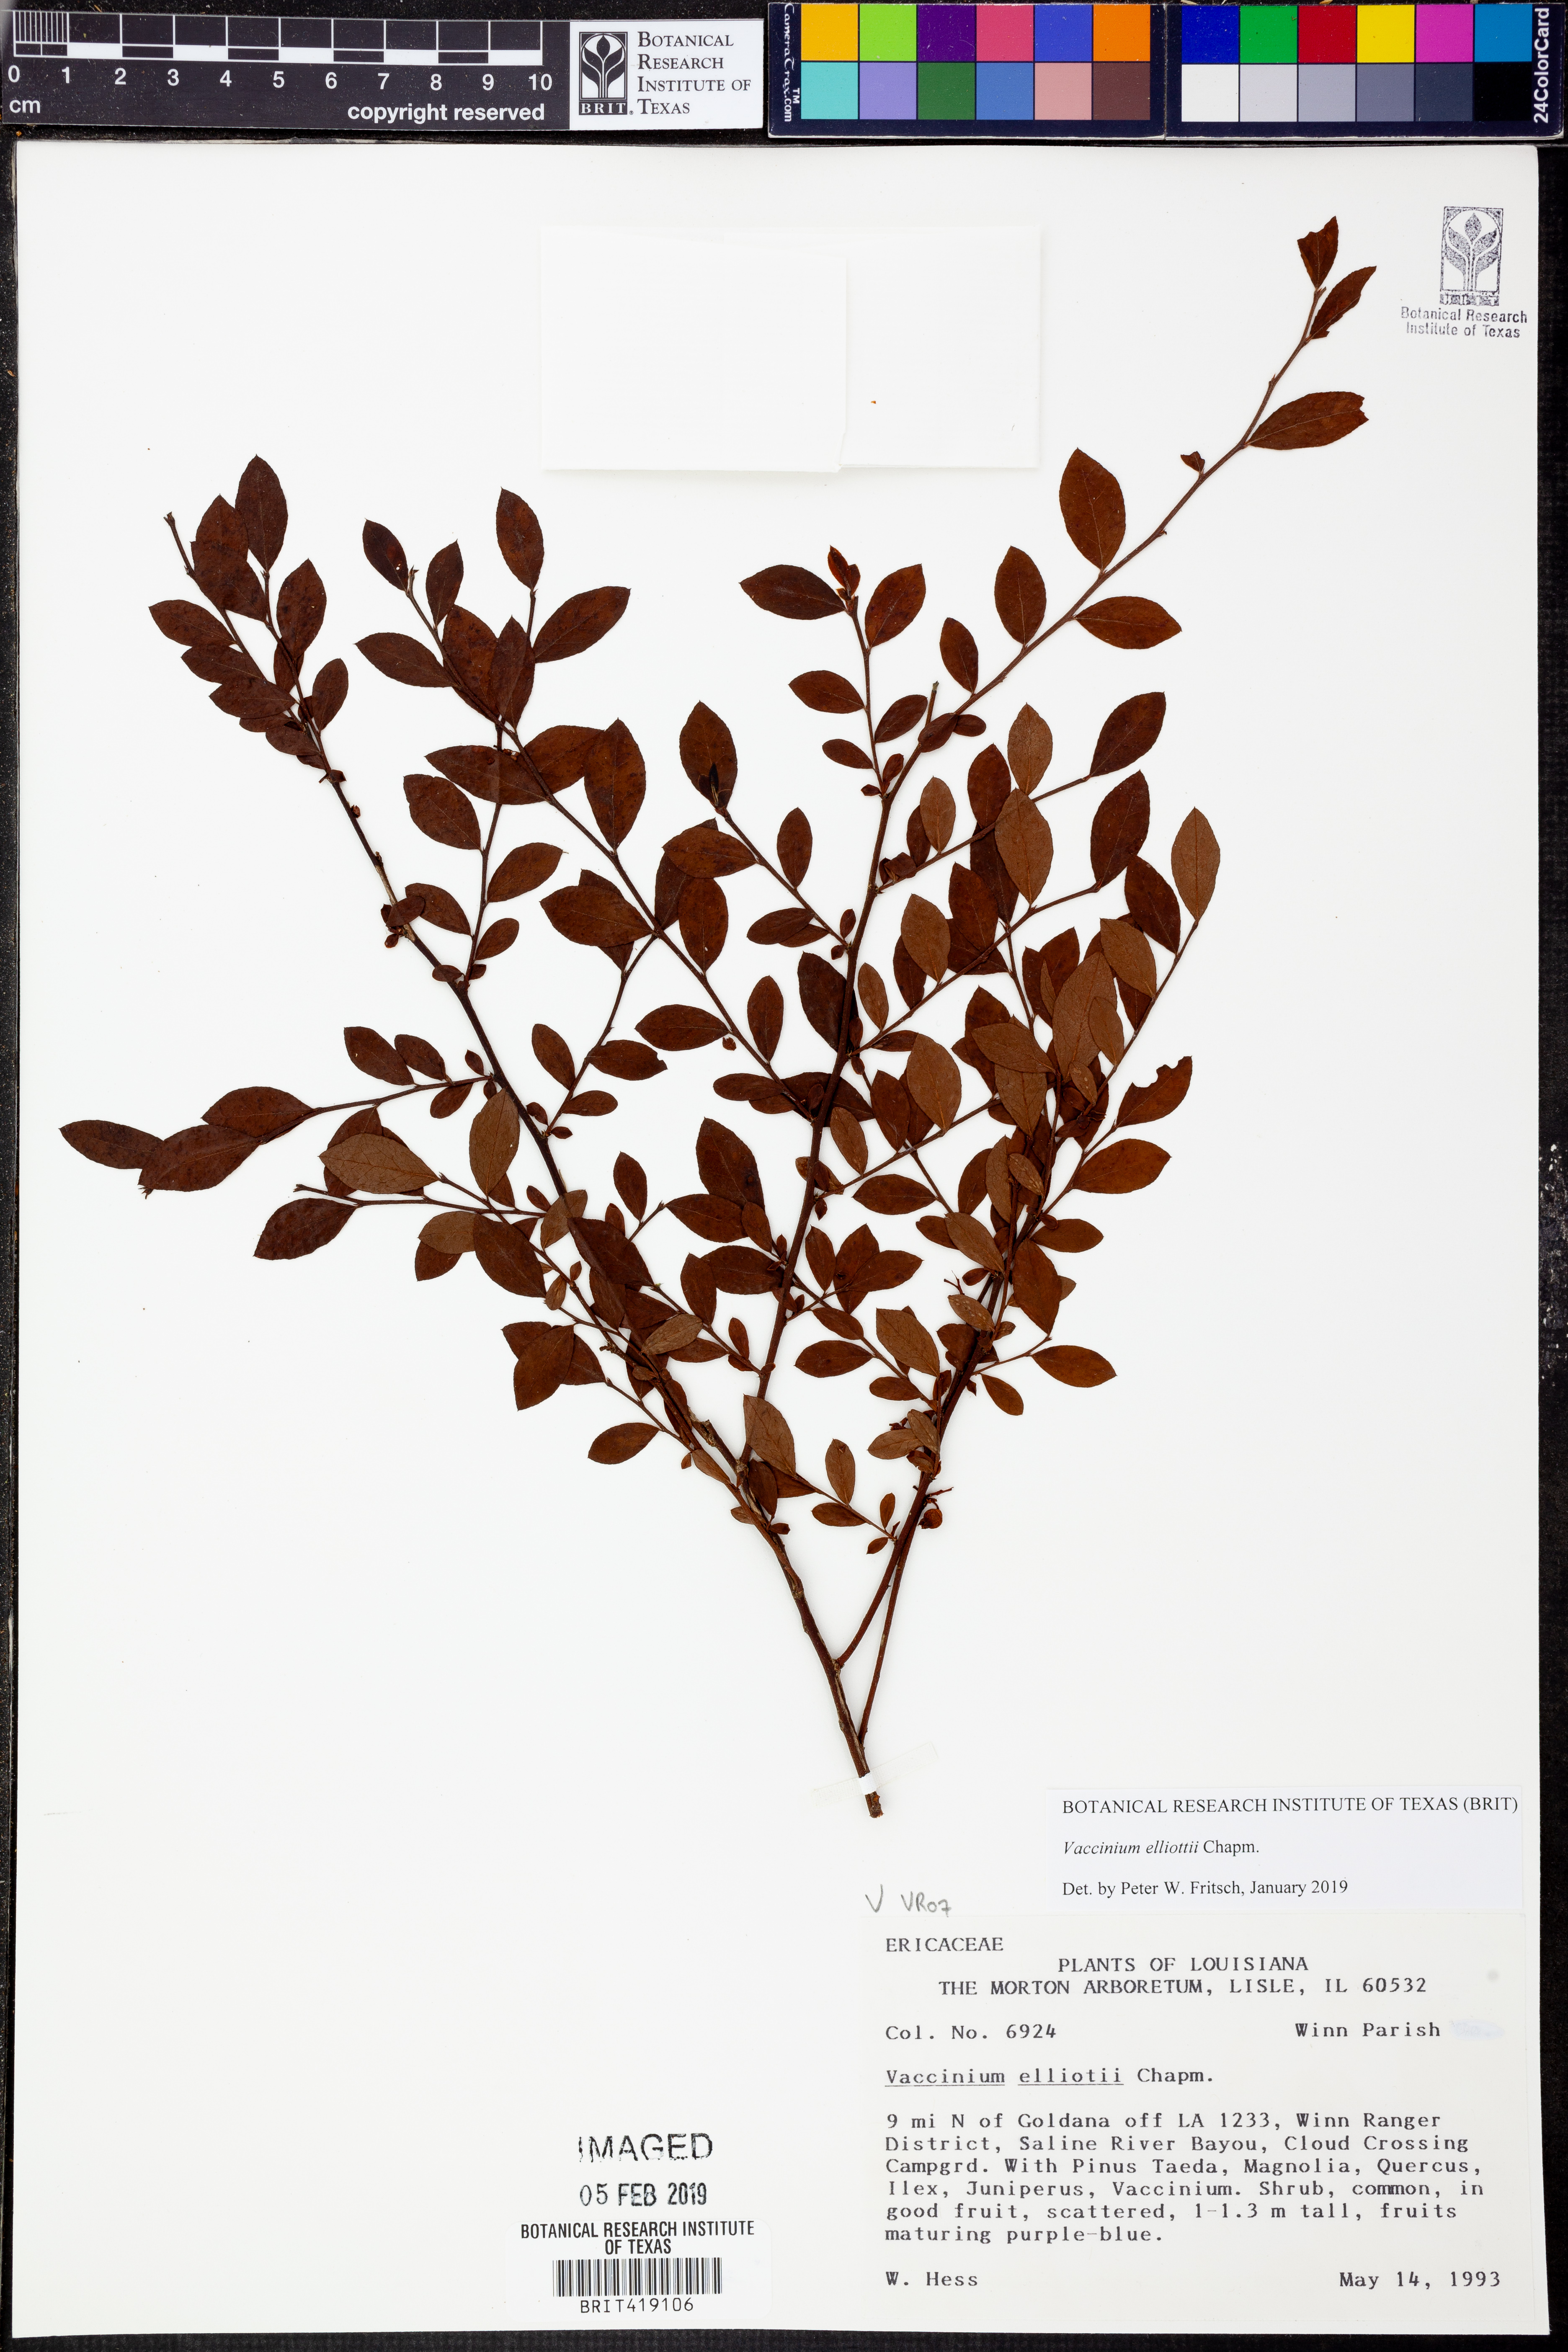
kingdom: Plantae
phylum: Tracheophyta
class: Magnoliopsida
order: Ericales
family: Ericaceae
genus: Vaccinium
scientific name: Vaccinium corymbosum
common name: Blueberry
